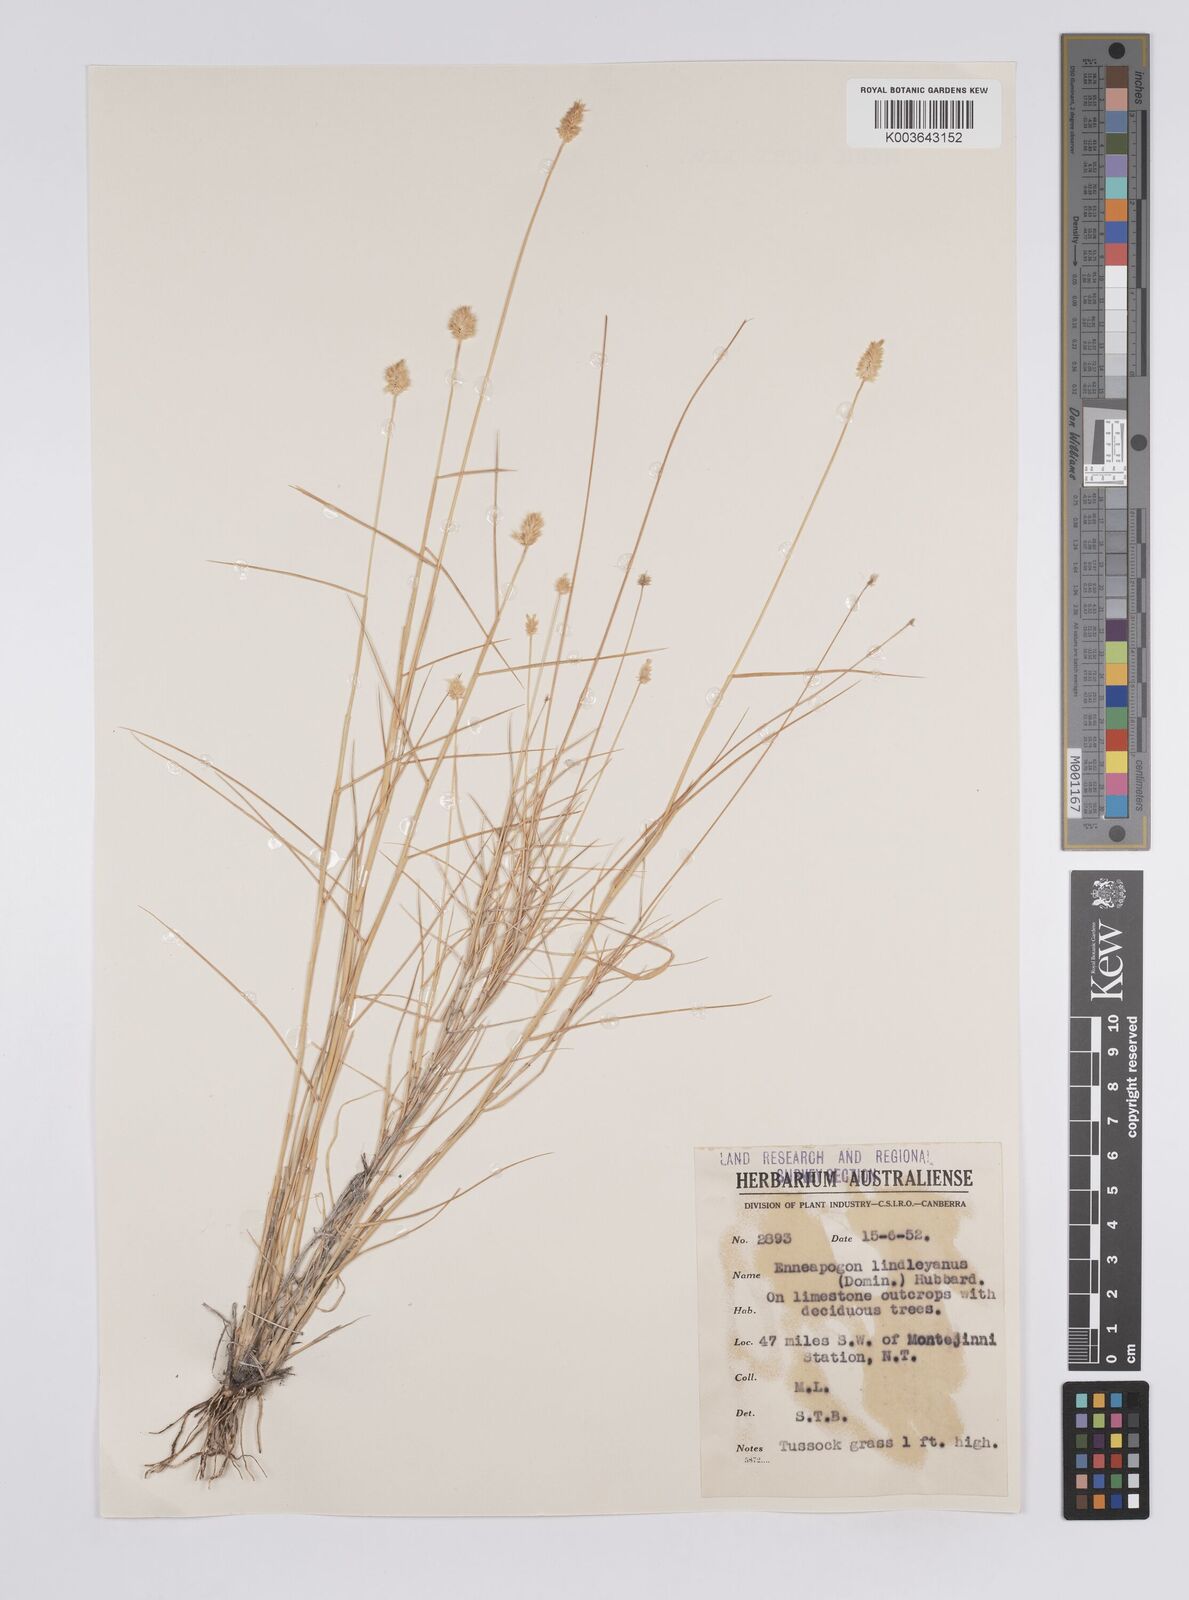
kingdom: Plantae
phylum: Tracheophyta
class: Liliopsida
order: Poales
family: Poaceae
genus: Enneapogon
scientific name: Enneapogon lindleyanus
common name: Conetop nineawn
